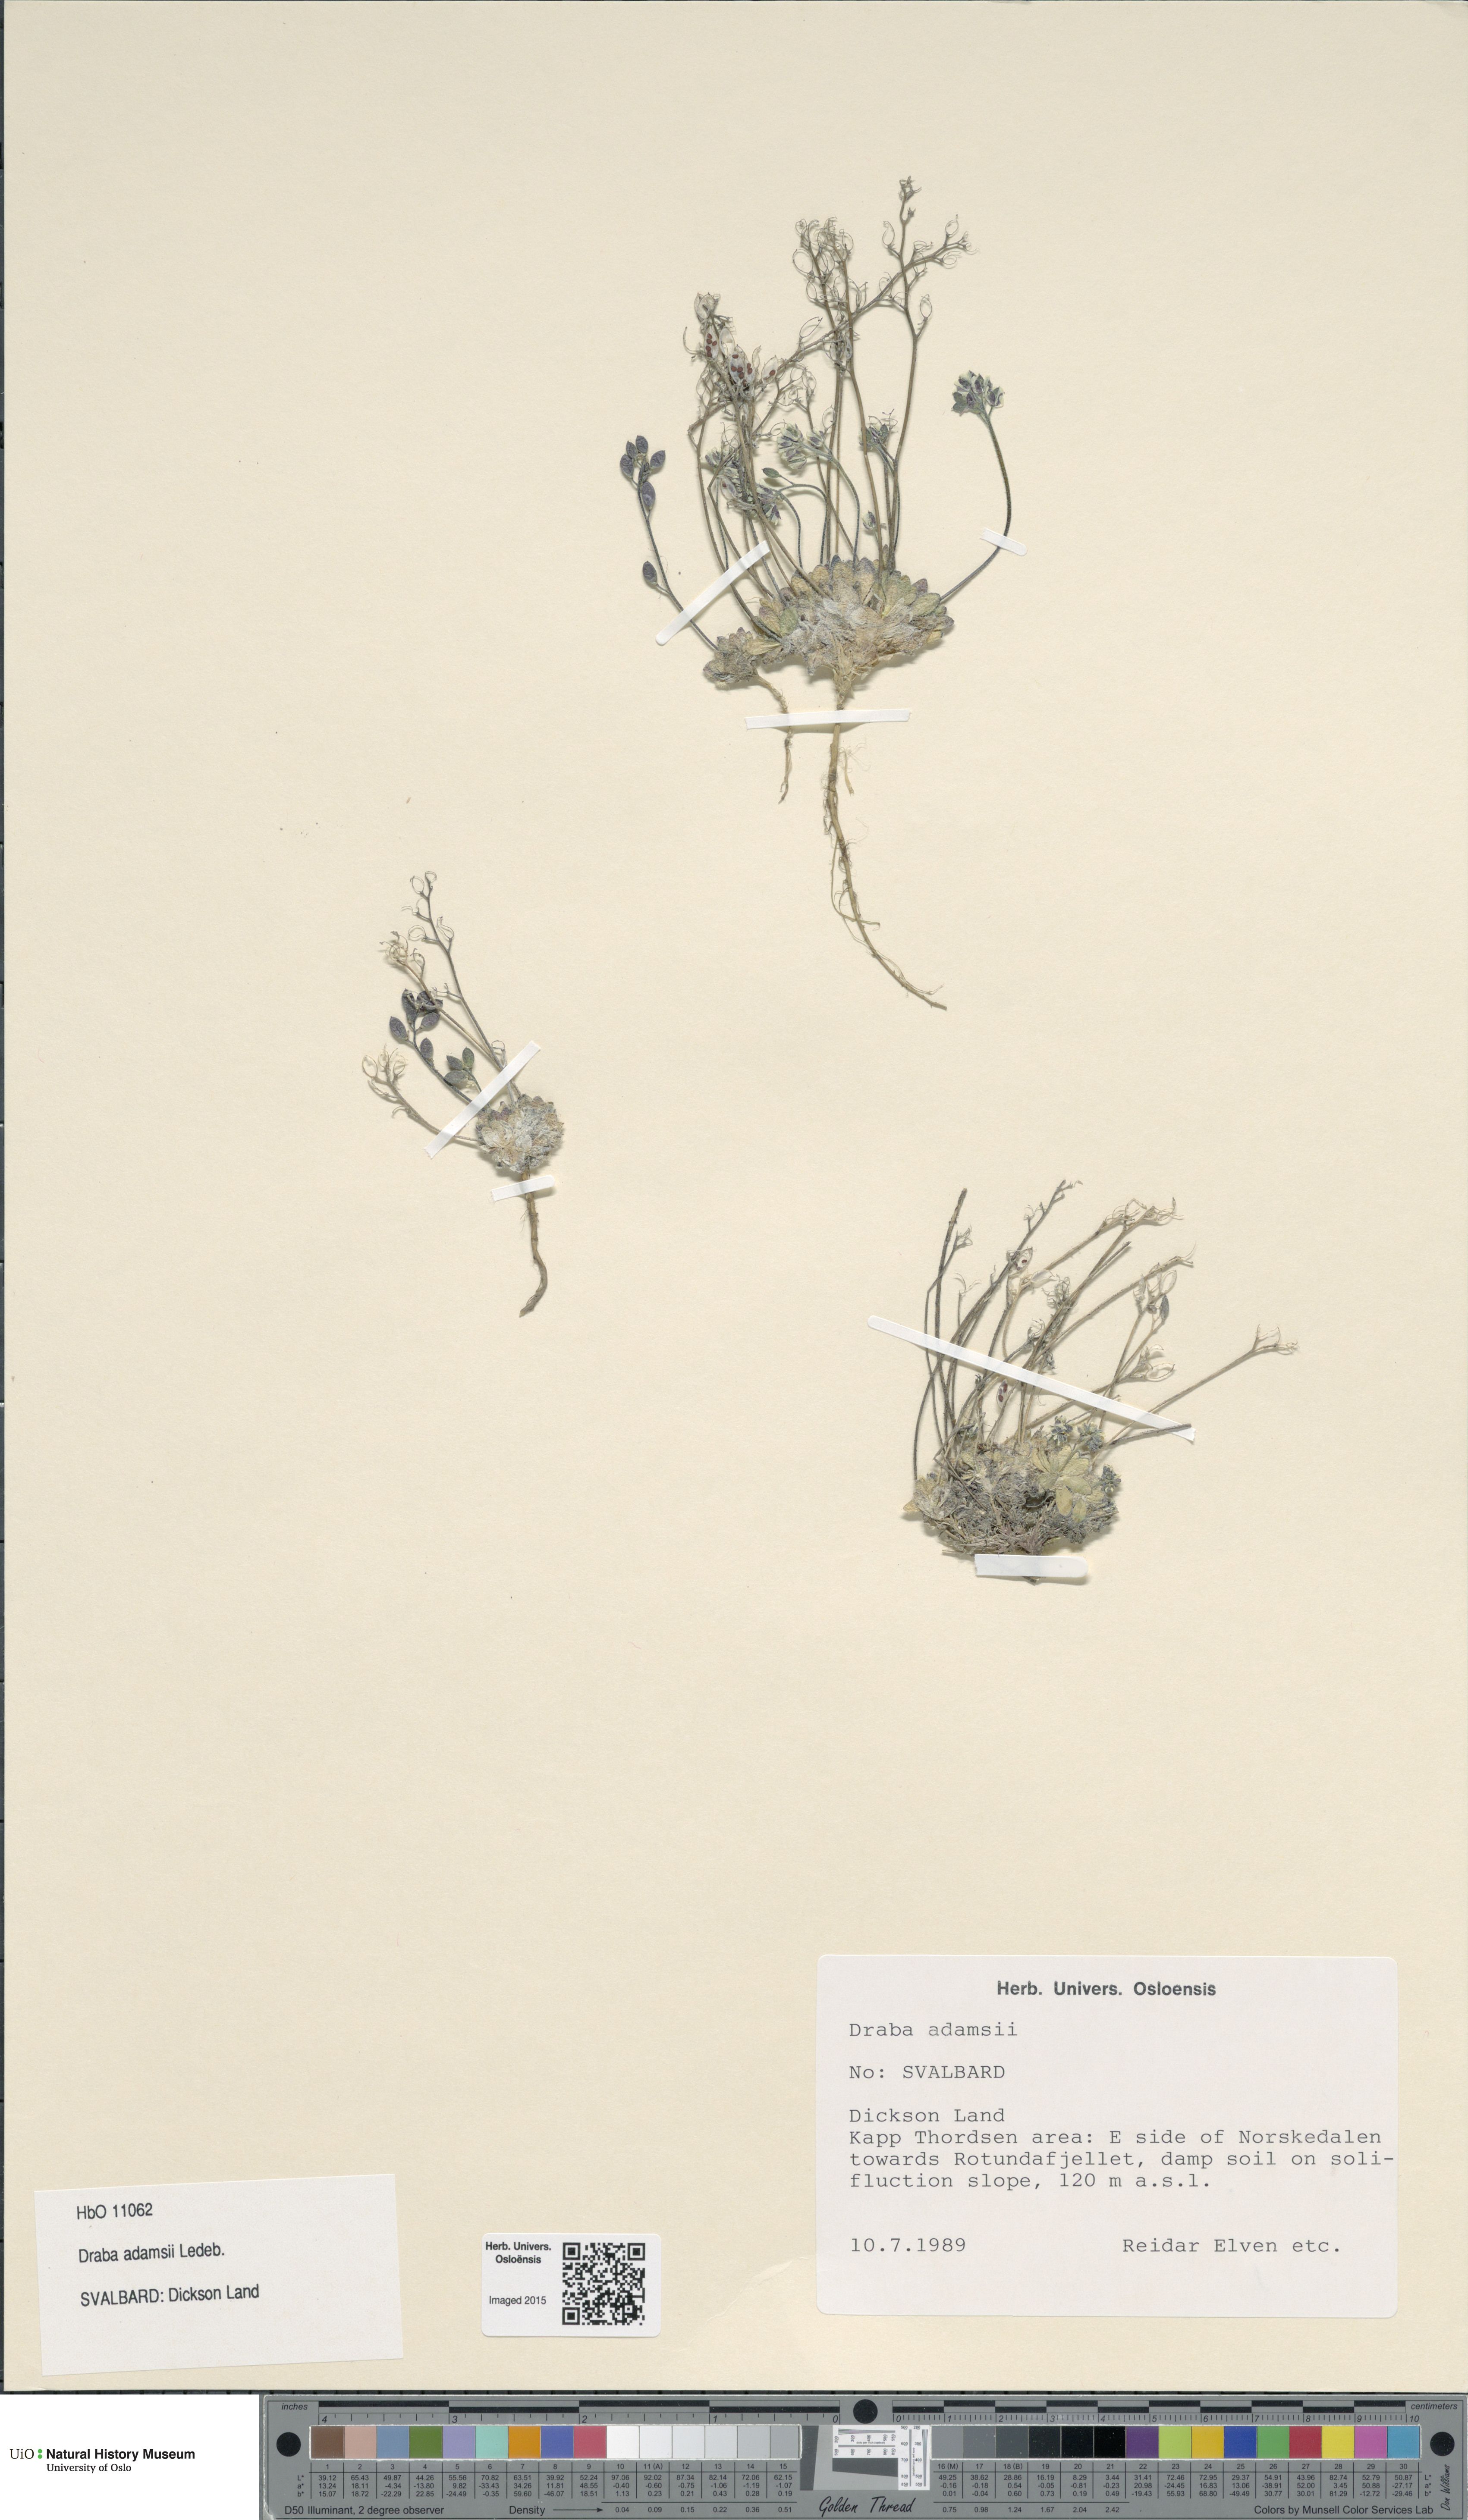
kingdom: Plantae
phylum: Tracheophyta
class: Magnoliopsida
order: Brassicales
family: Brassicaceae
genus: Draba
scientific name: Draba pauciflora
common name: Few-flowered draba
